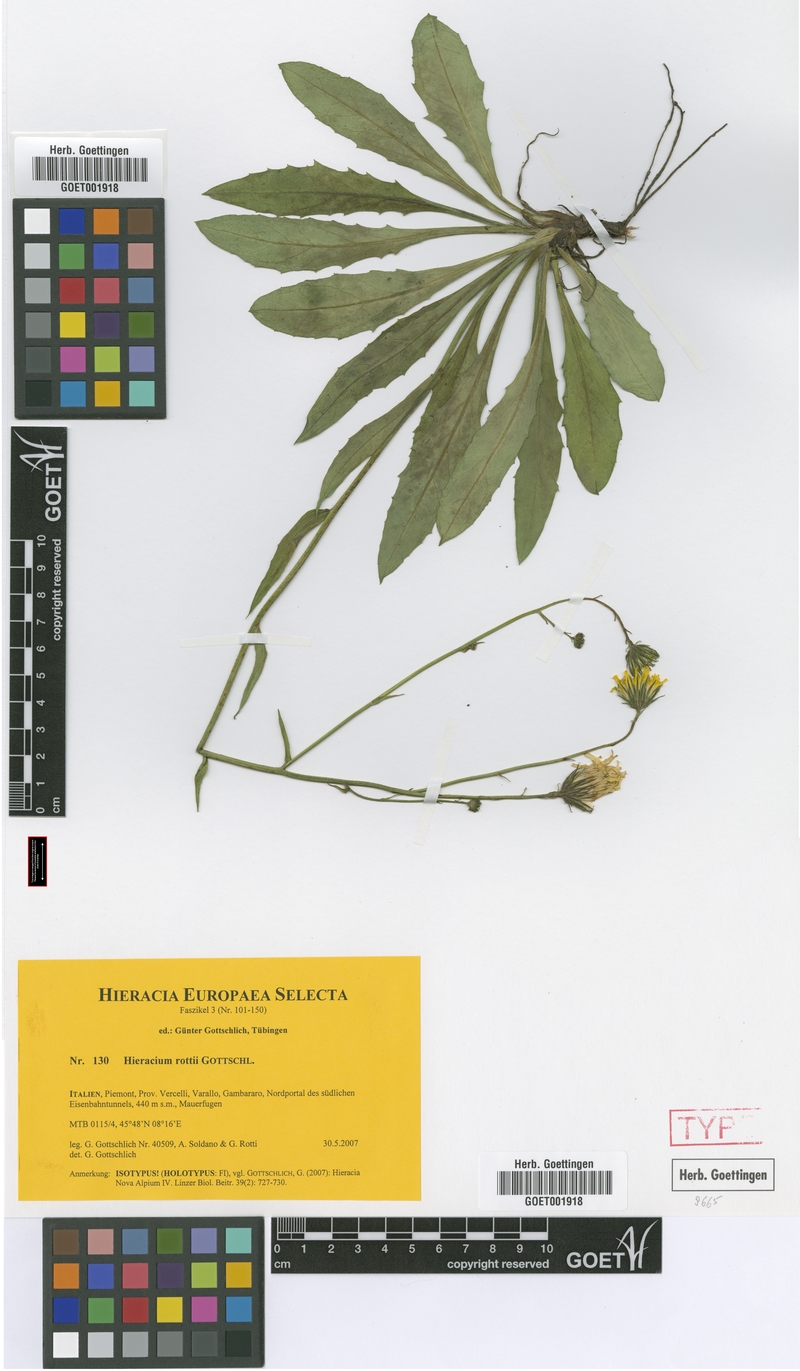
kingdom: Plantae
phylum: Tracheophyta
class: Magnoliopsida
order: Asterales
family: Asteraceae
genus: Hieracium
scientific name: Hieracium rottii
